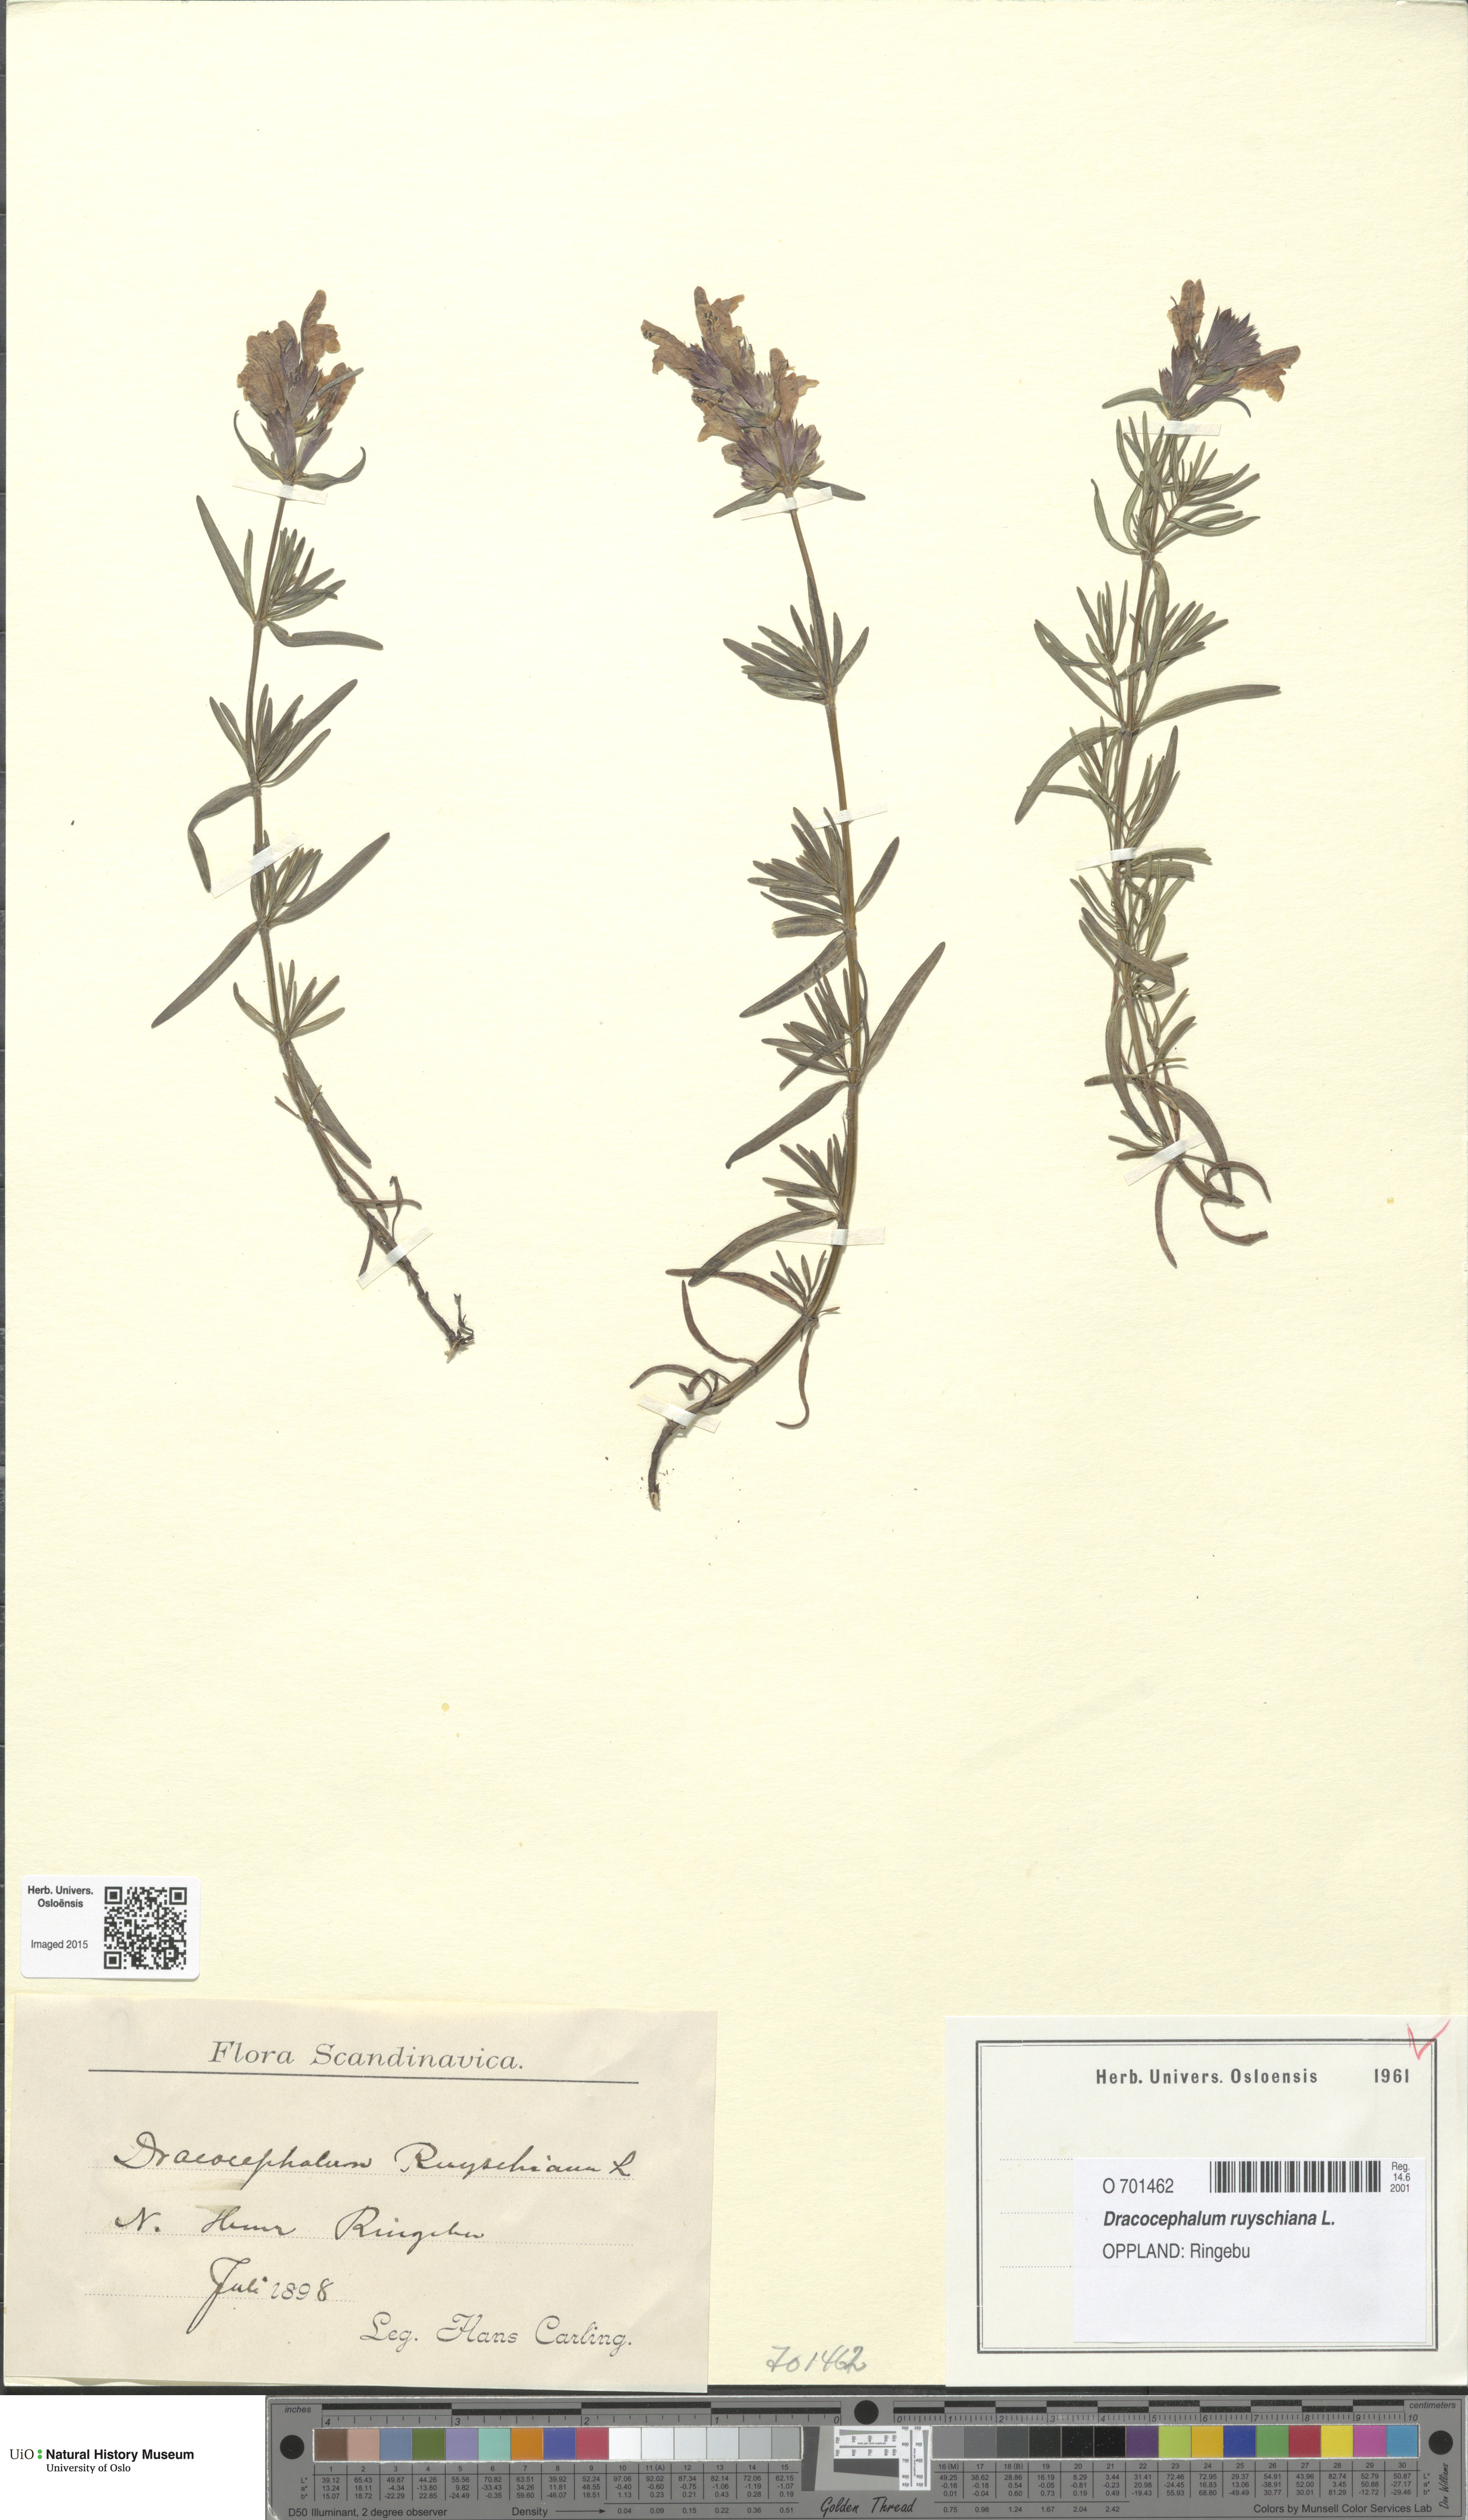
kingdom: Plantae
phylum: Tracheophyta
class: Magnoliopsida
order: Lamiales
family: Lamiaceae
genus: Dracocephalum
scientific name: Dracocephalum ruyschiana
